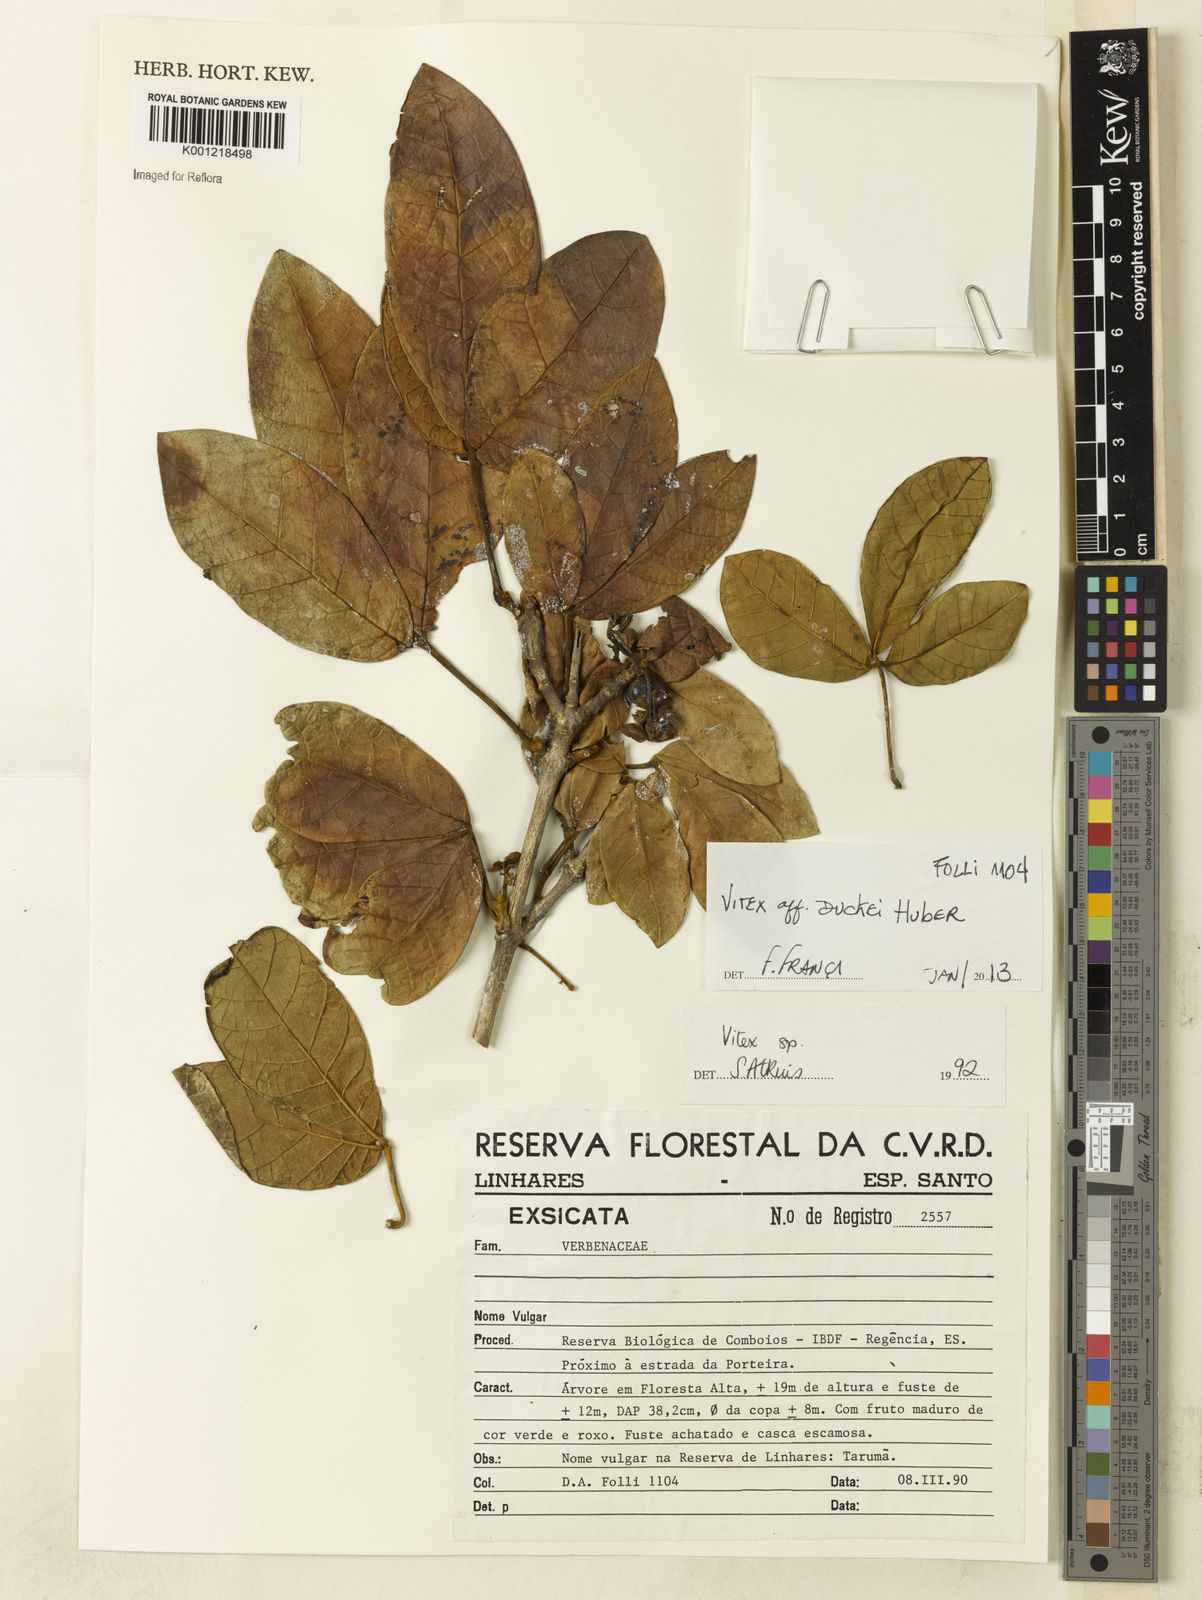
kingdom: Plantae
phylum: Tracheophyta
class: Magnoliopsida
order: Lamiales
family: Lamiaceae
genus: Vitex
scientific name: Vitex duckei
